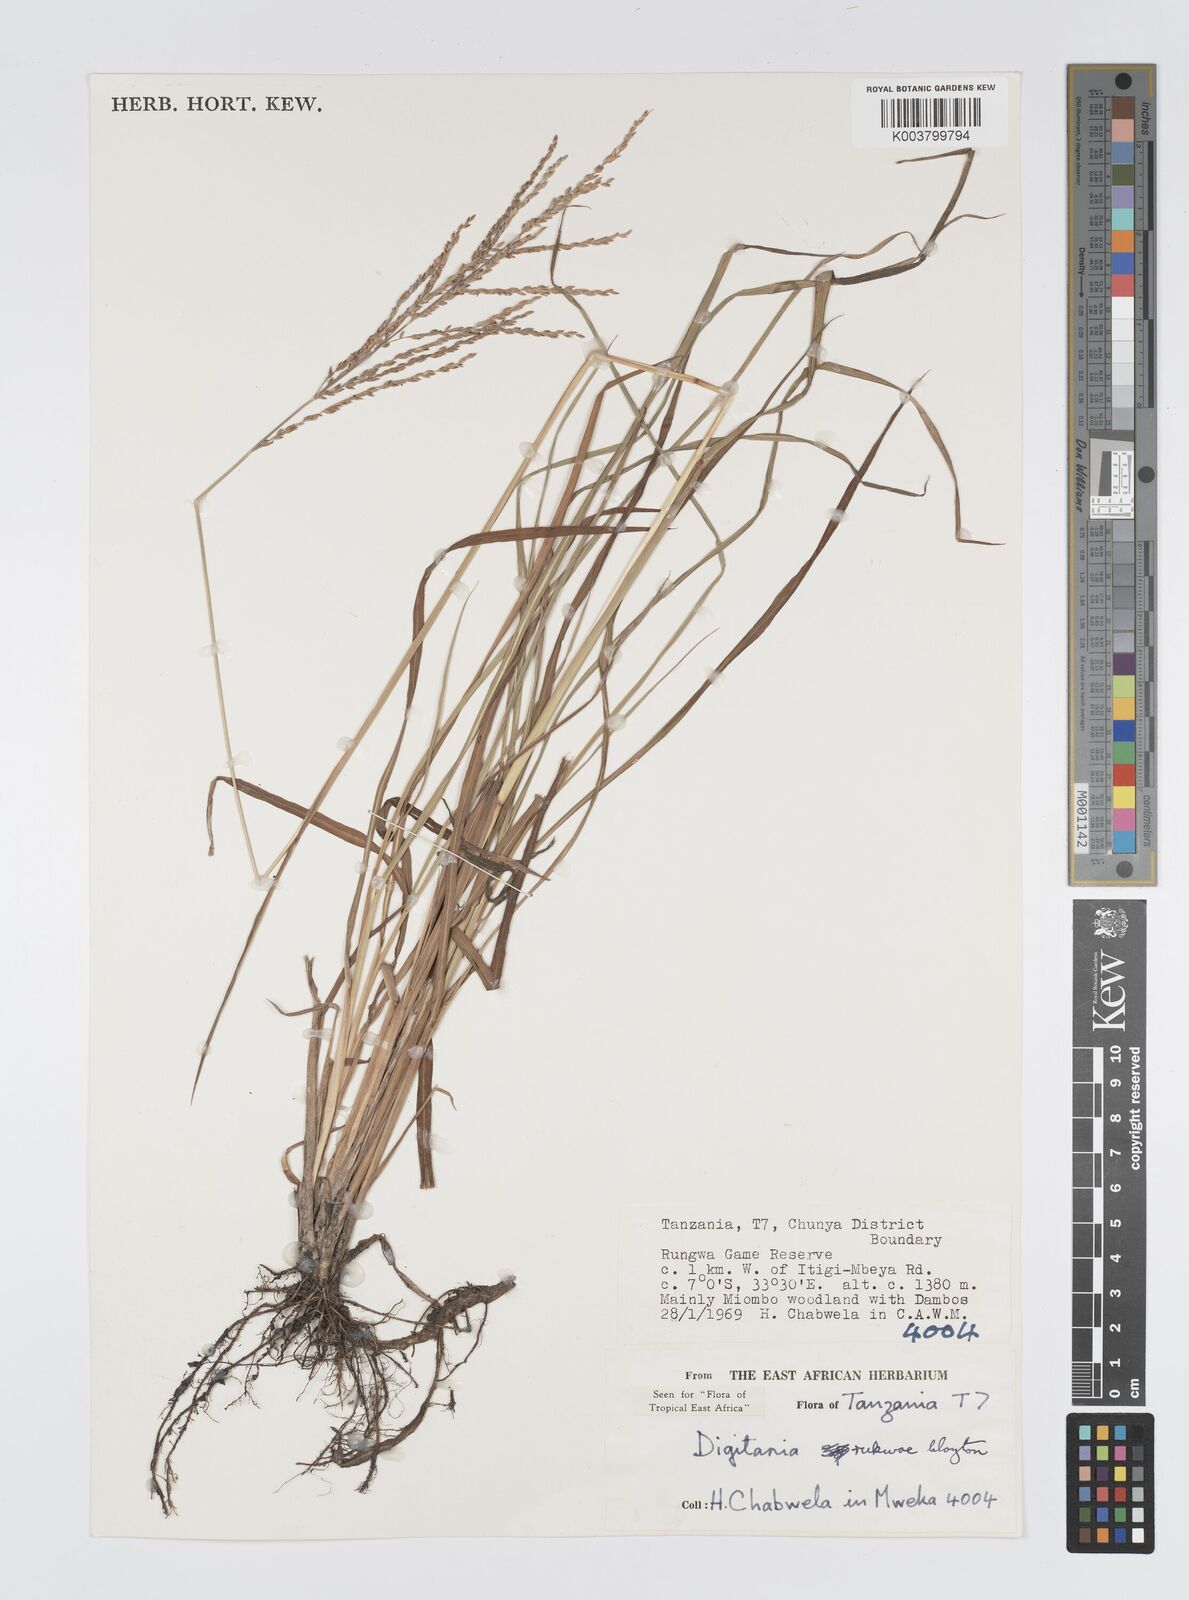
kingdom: Plantae
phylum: Tracheophyta
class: Liliopsida
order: Poales
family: Poaceae
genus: Digitaria
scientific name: Digitaria rukwae
